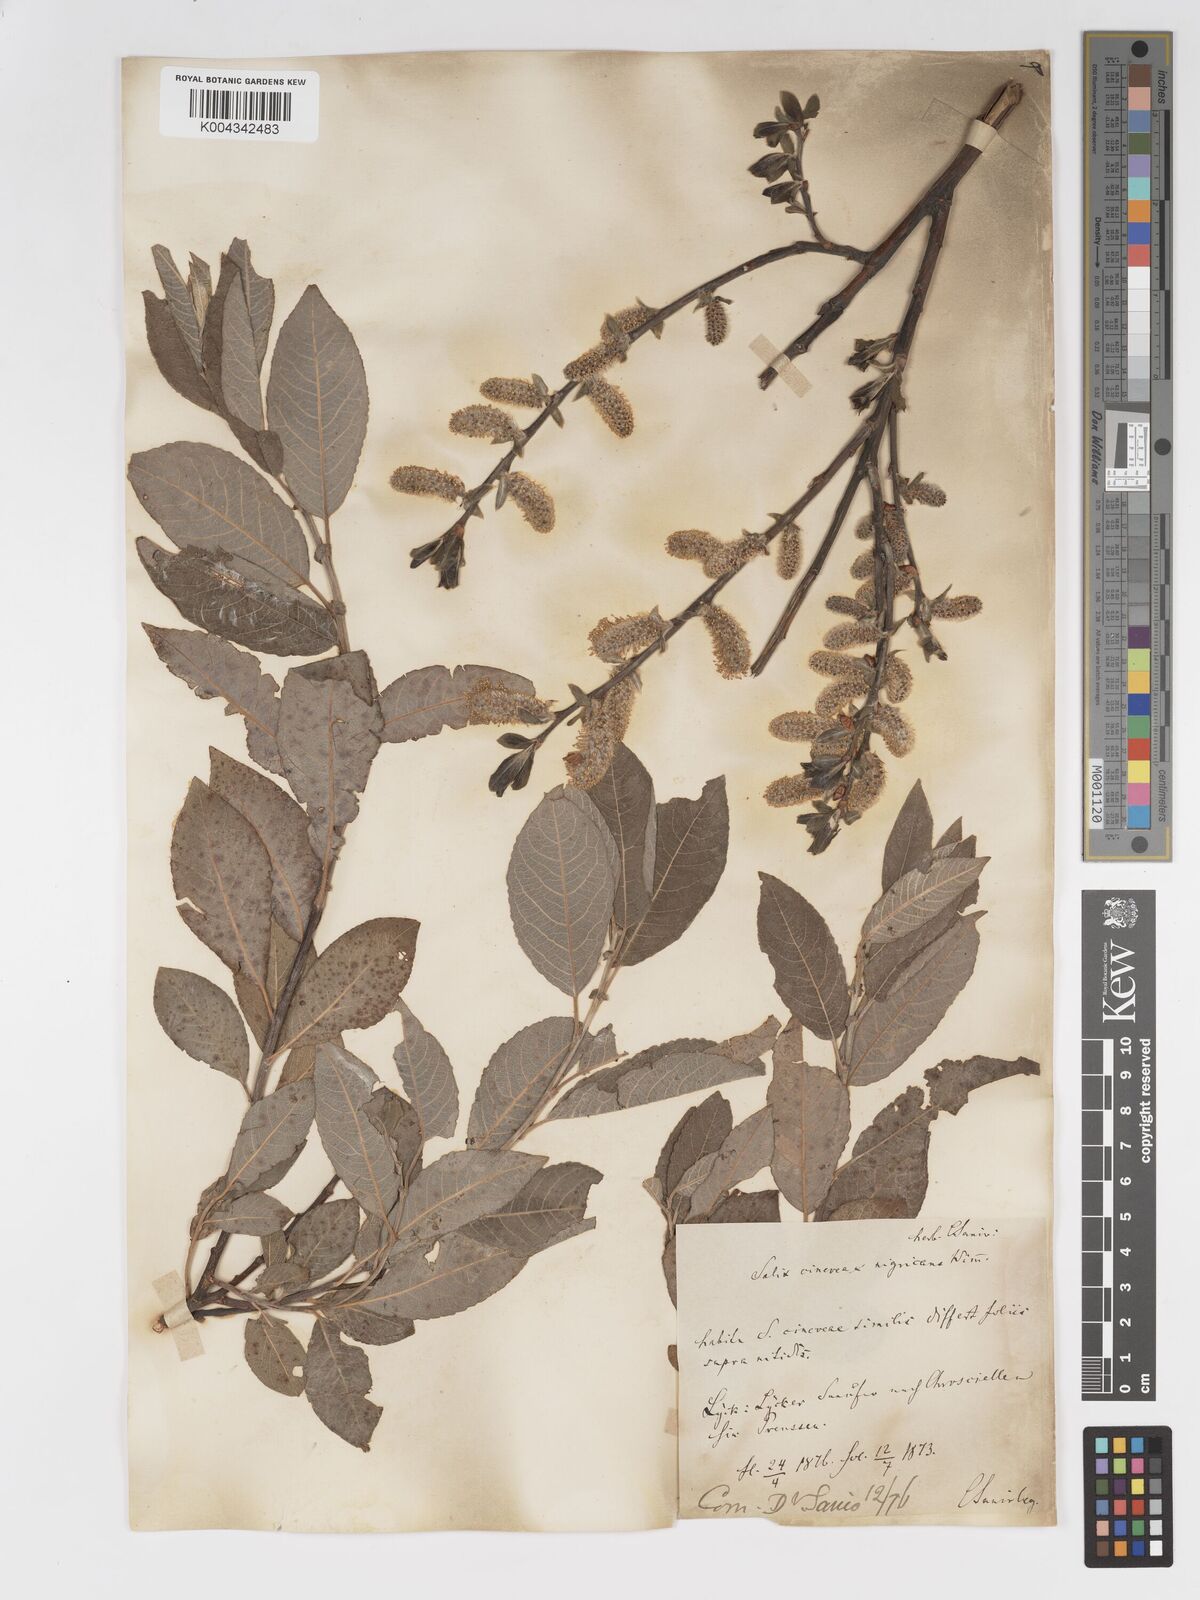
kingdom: Plantae
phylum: Tracheophyta
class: Magnoliopsida
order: Malpighiales
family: Salicaceae
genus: Salix
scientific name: Salix
